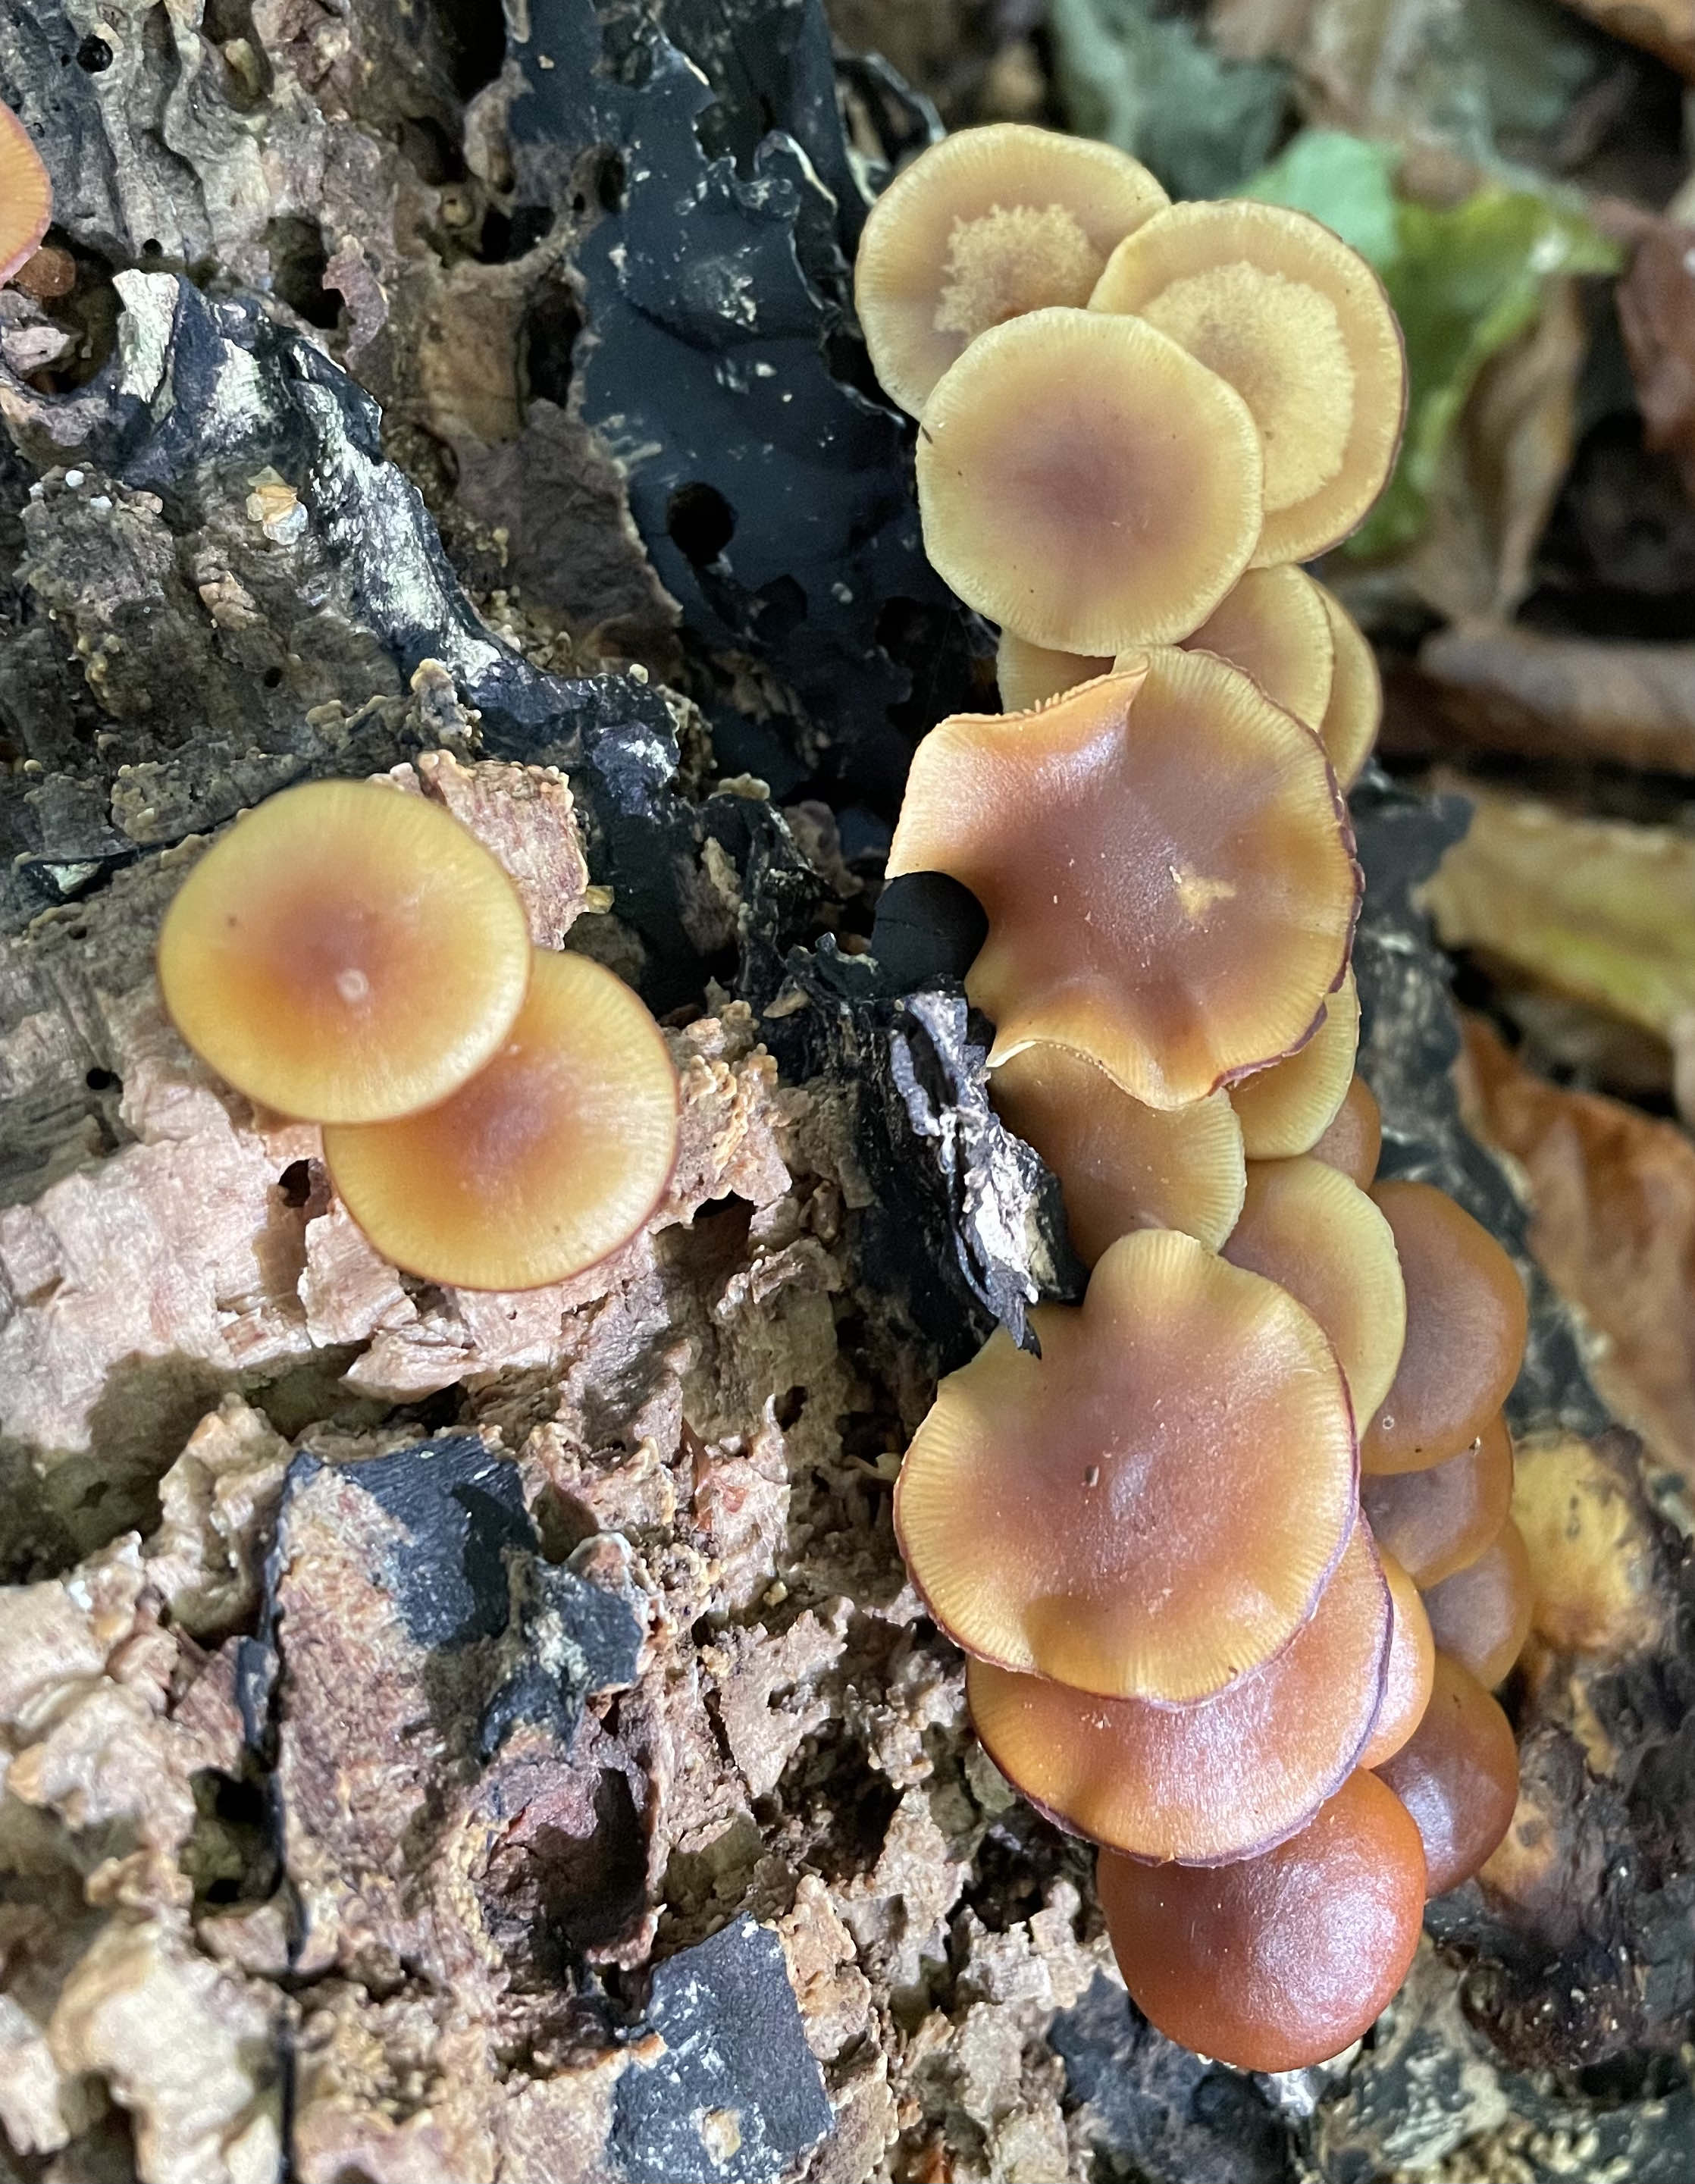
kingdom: Fungi
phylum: Basidiomycota
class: Agaricomycetes
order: Agaricales
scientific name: Agaricales
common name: champignonordenen
